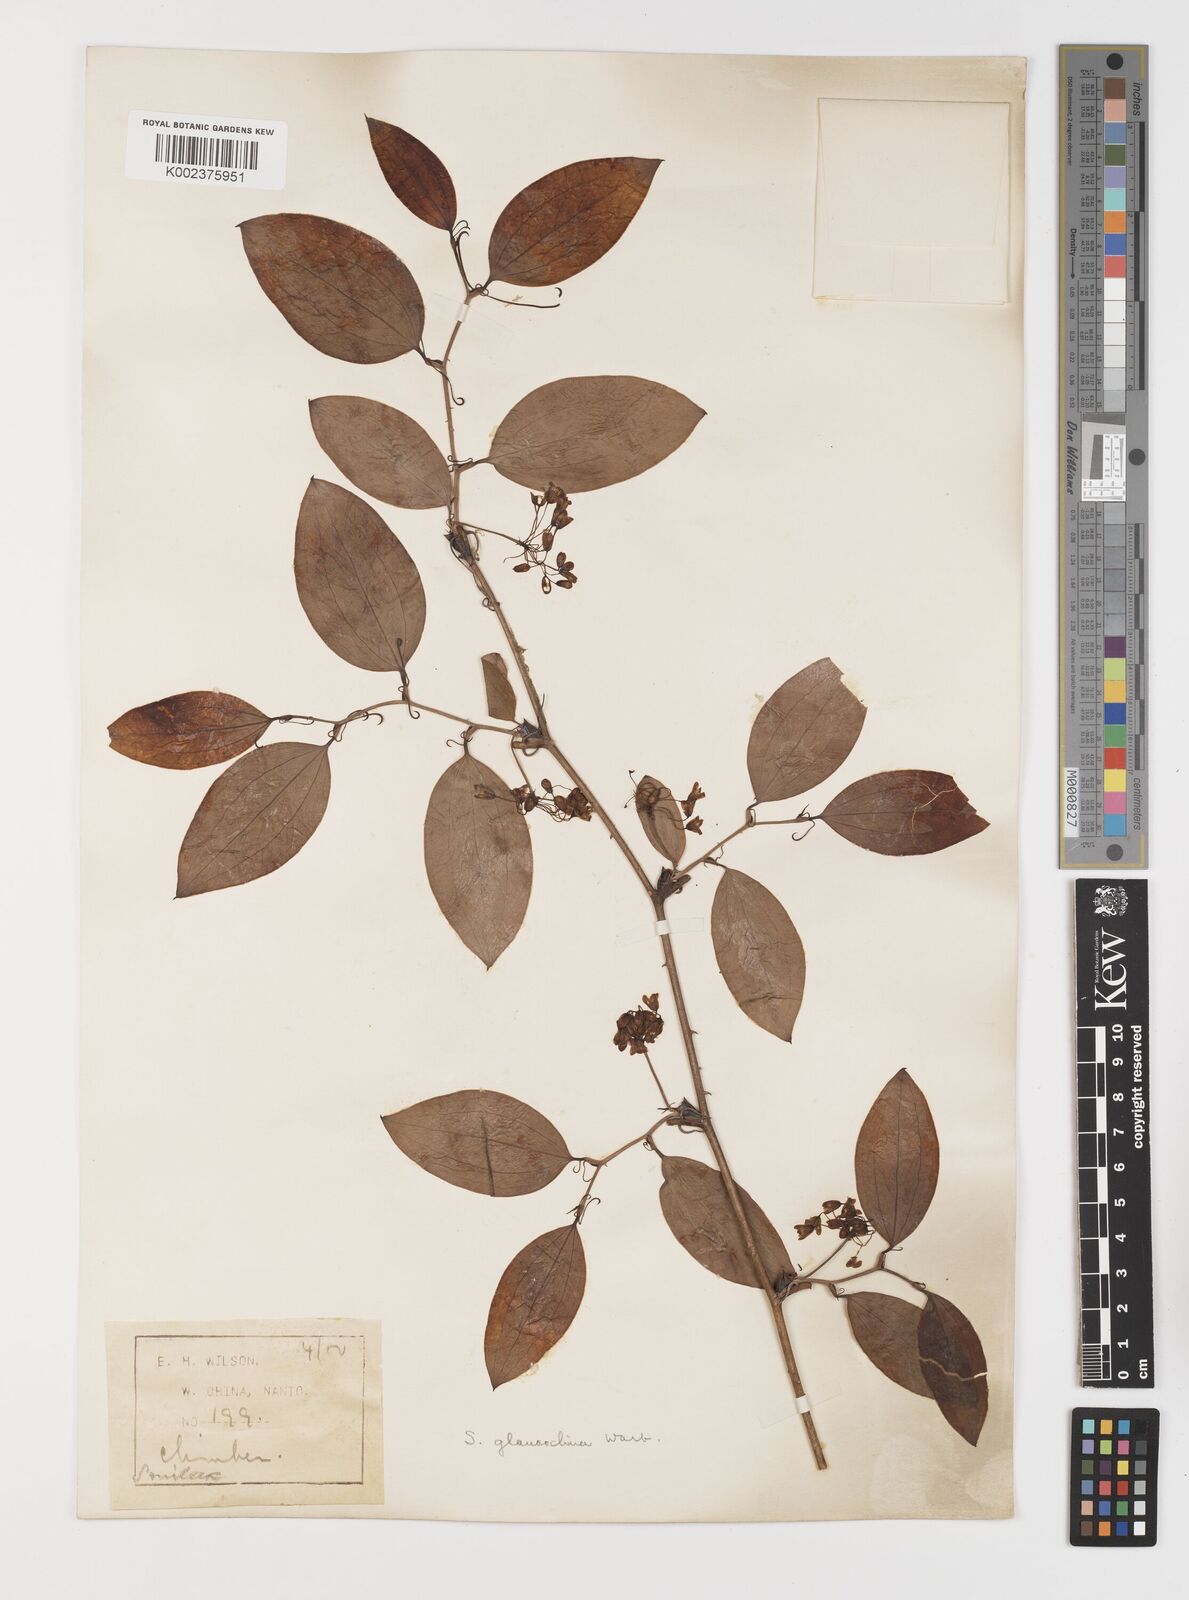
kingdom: Plantae
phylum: Tracheophyta
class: Liliopsida
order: Liliales
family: Smilacaceae
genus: Smilax
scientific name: Smilax glaucochina
